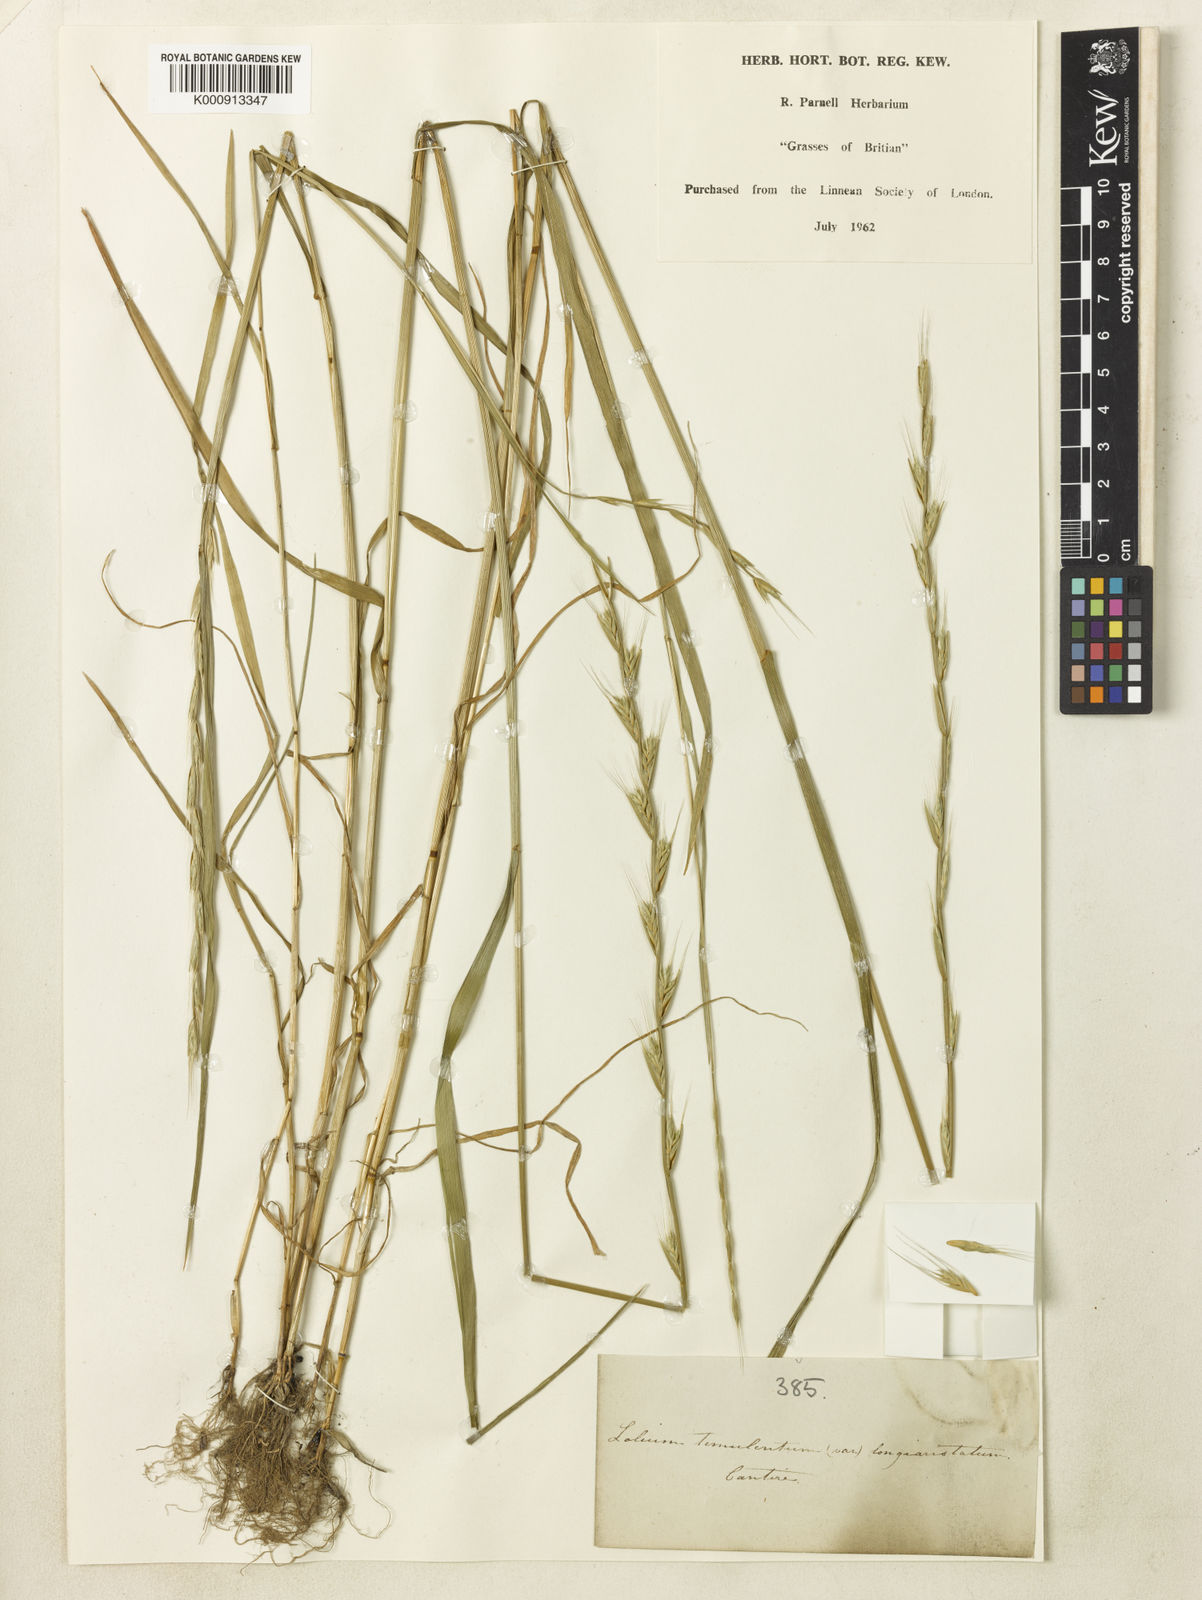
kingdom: Plantae
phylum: Tracheophyta
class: Liliopsida
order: Poales
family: Poaceae
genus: Lolium
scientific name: Lolium temulentum
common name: Darnel
